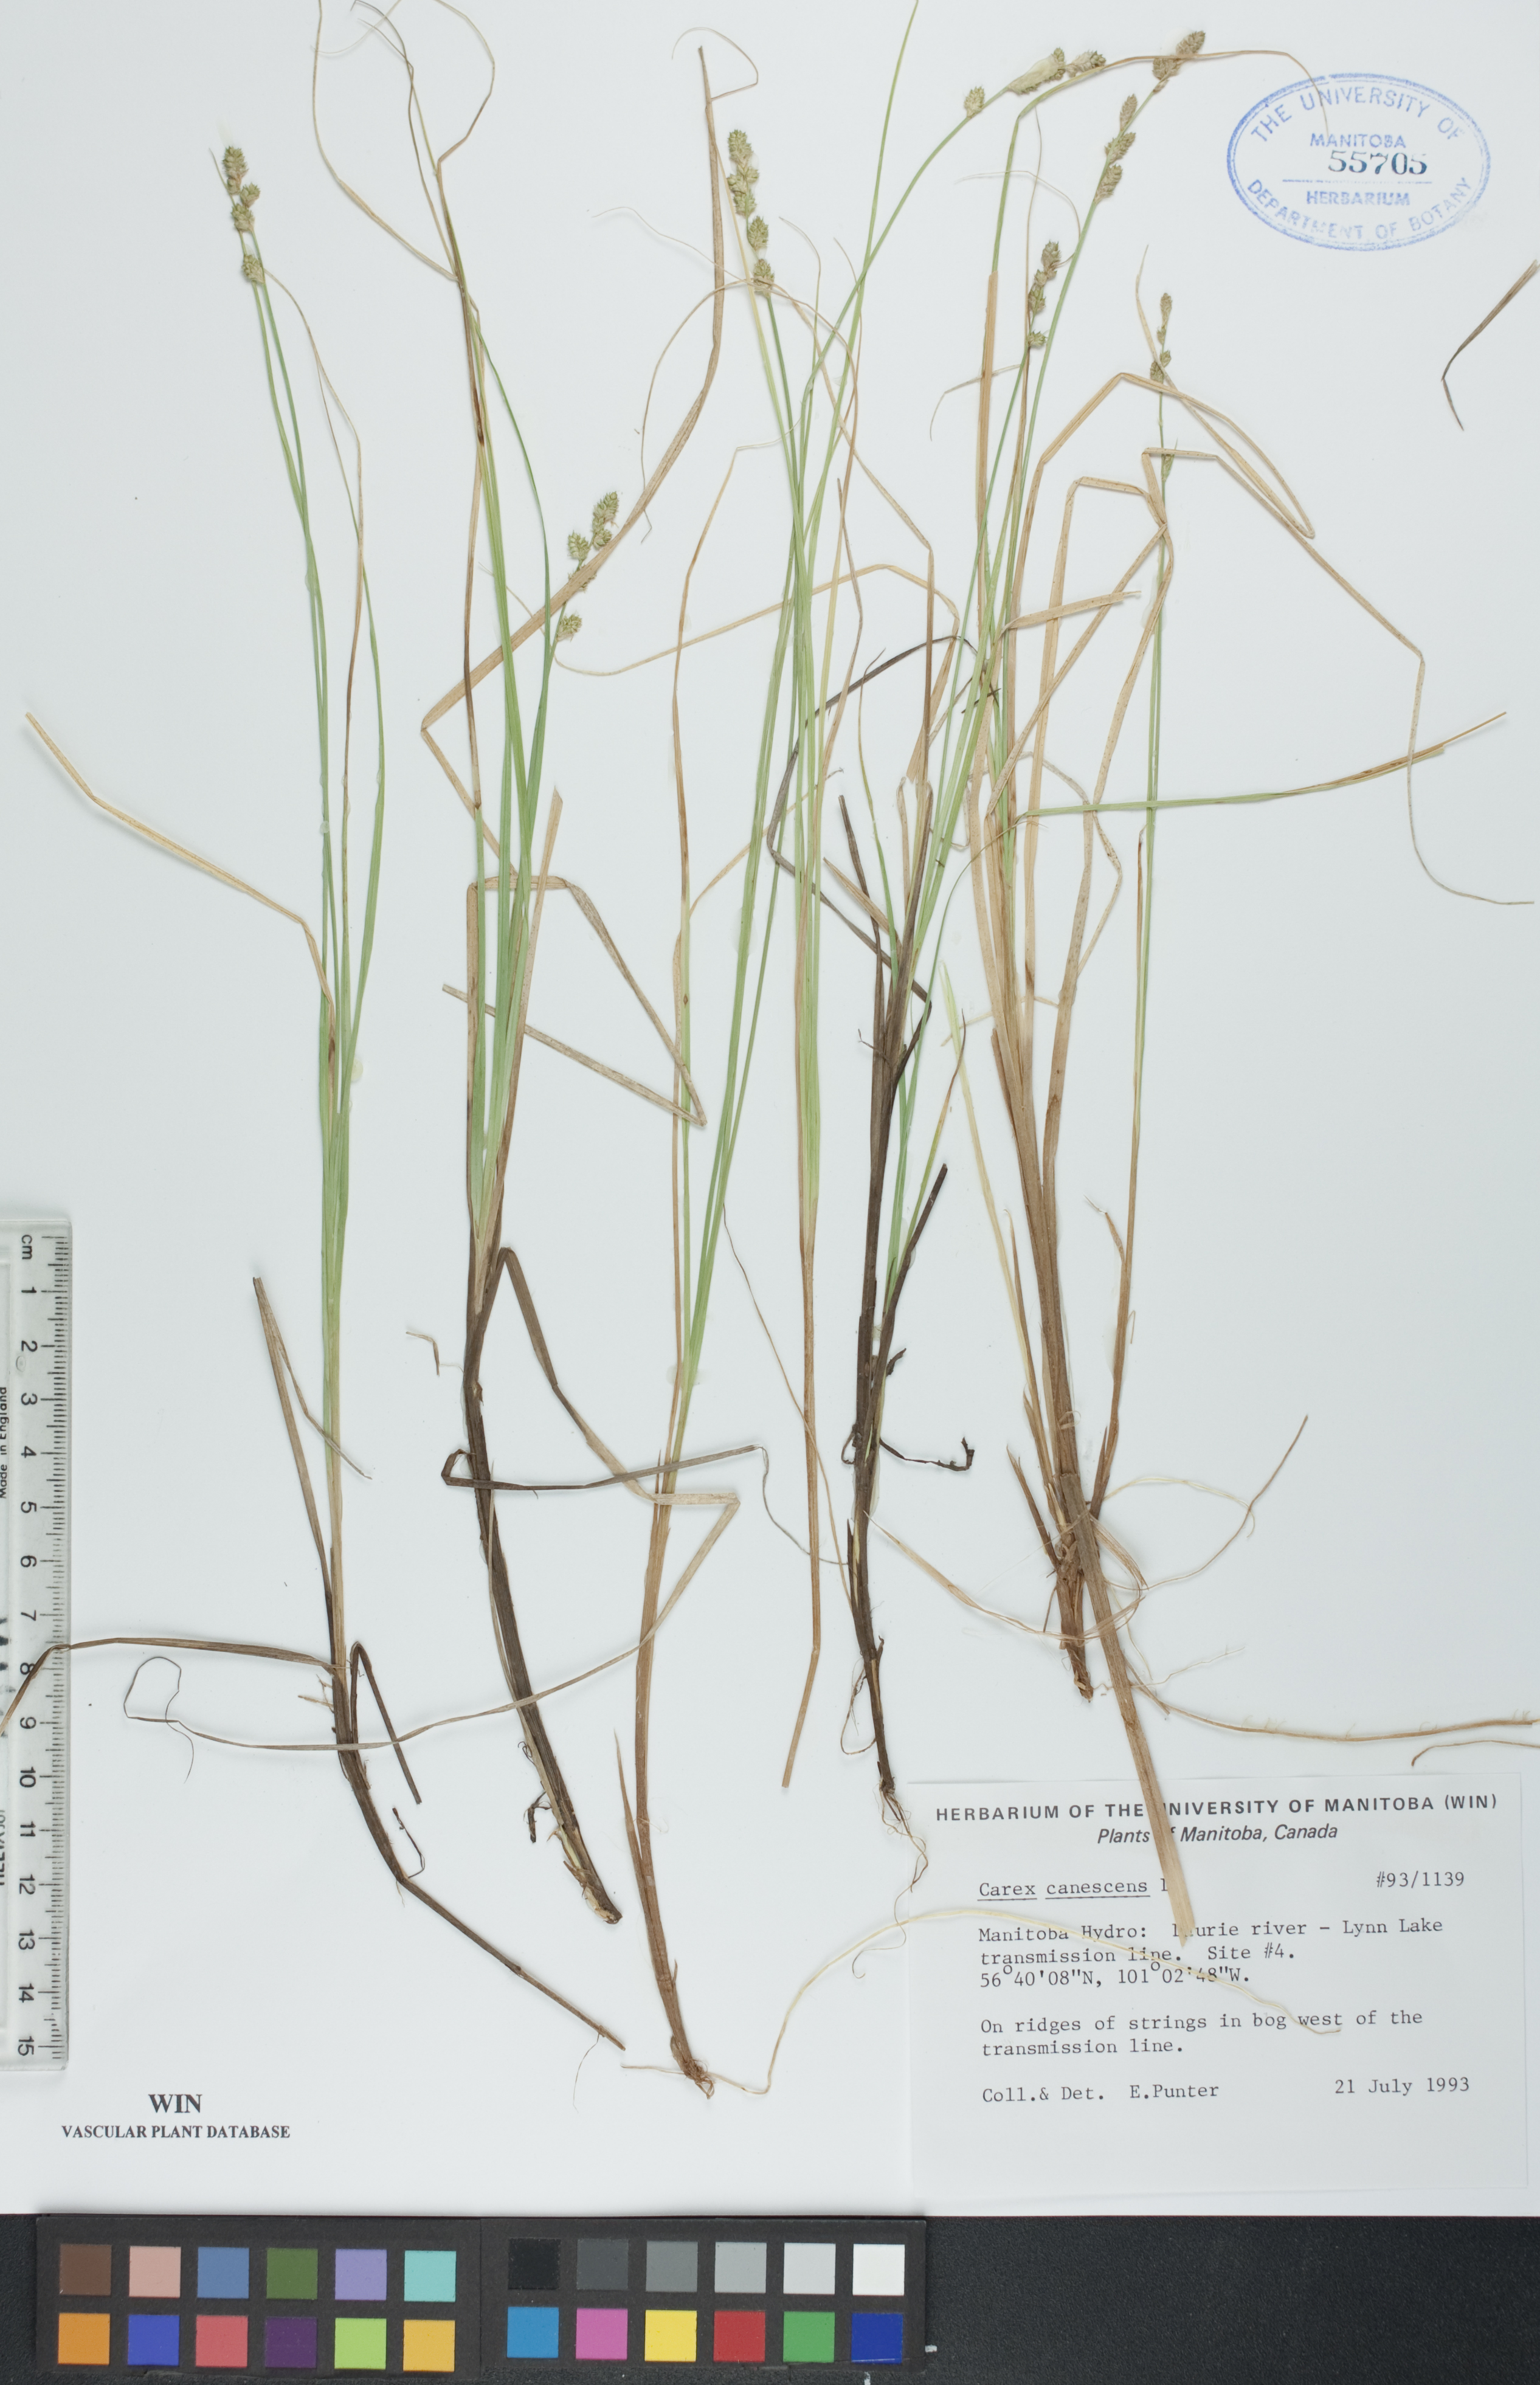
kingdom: Plantae
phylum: Tracheophyta
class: Liliopsida
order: Poales
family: Cyperaceae
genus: Carex
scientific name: Carex canescens
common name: White sedge
